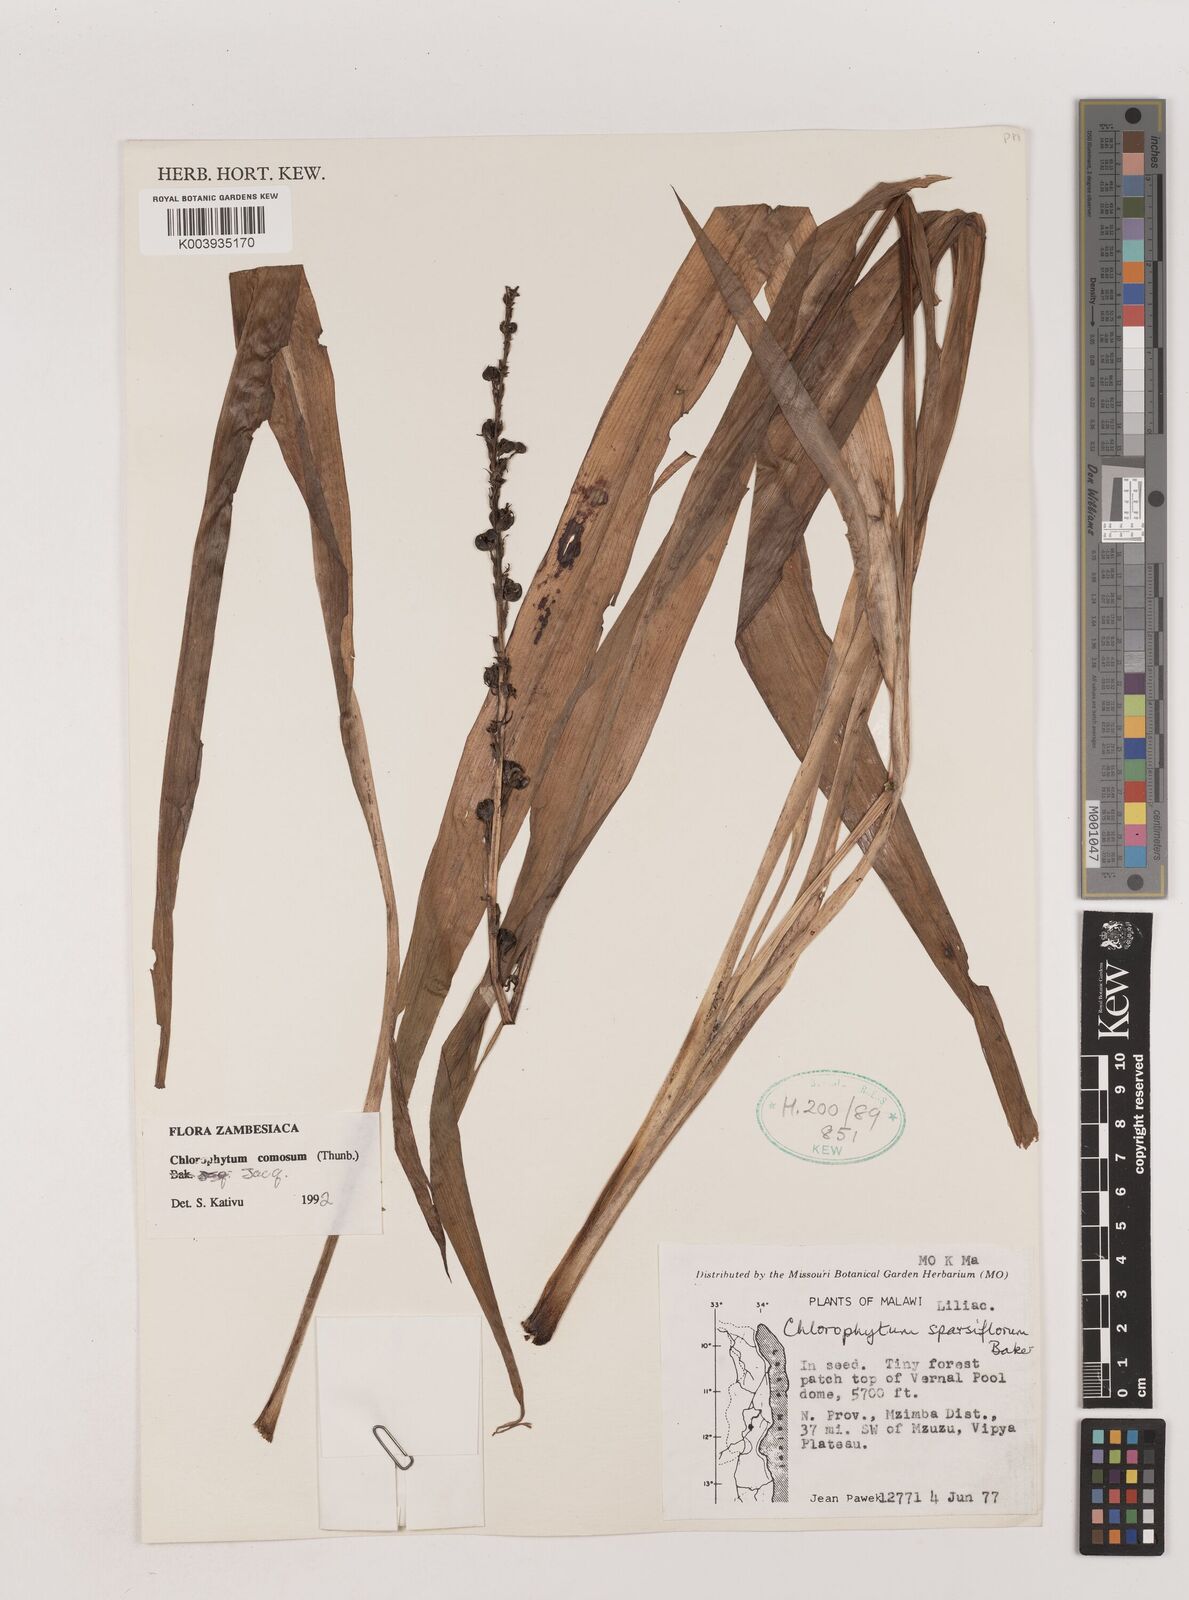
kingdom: Plantae
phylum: Tracheophyta
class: Liliopsida
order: Asparagales
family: Asparagaceae
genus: Chlorophytum
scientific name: Chlorophytum comosum
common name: Spider plant
